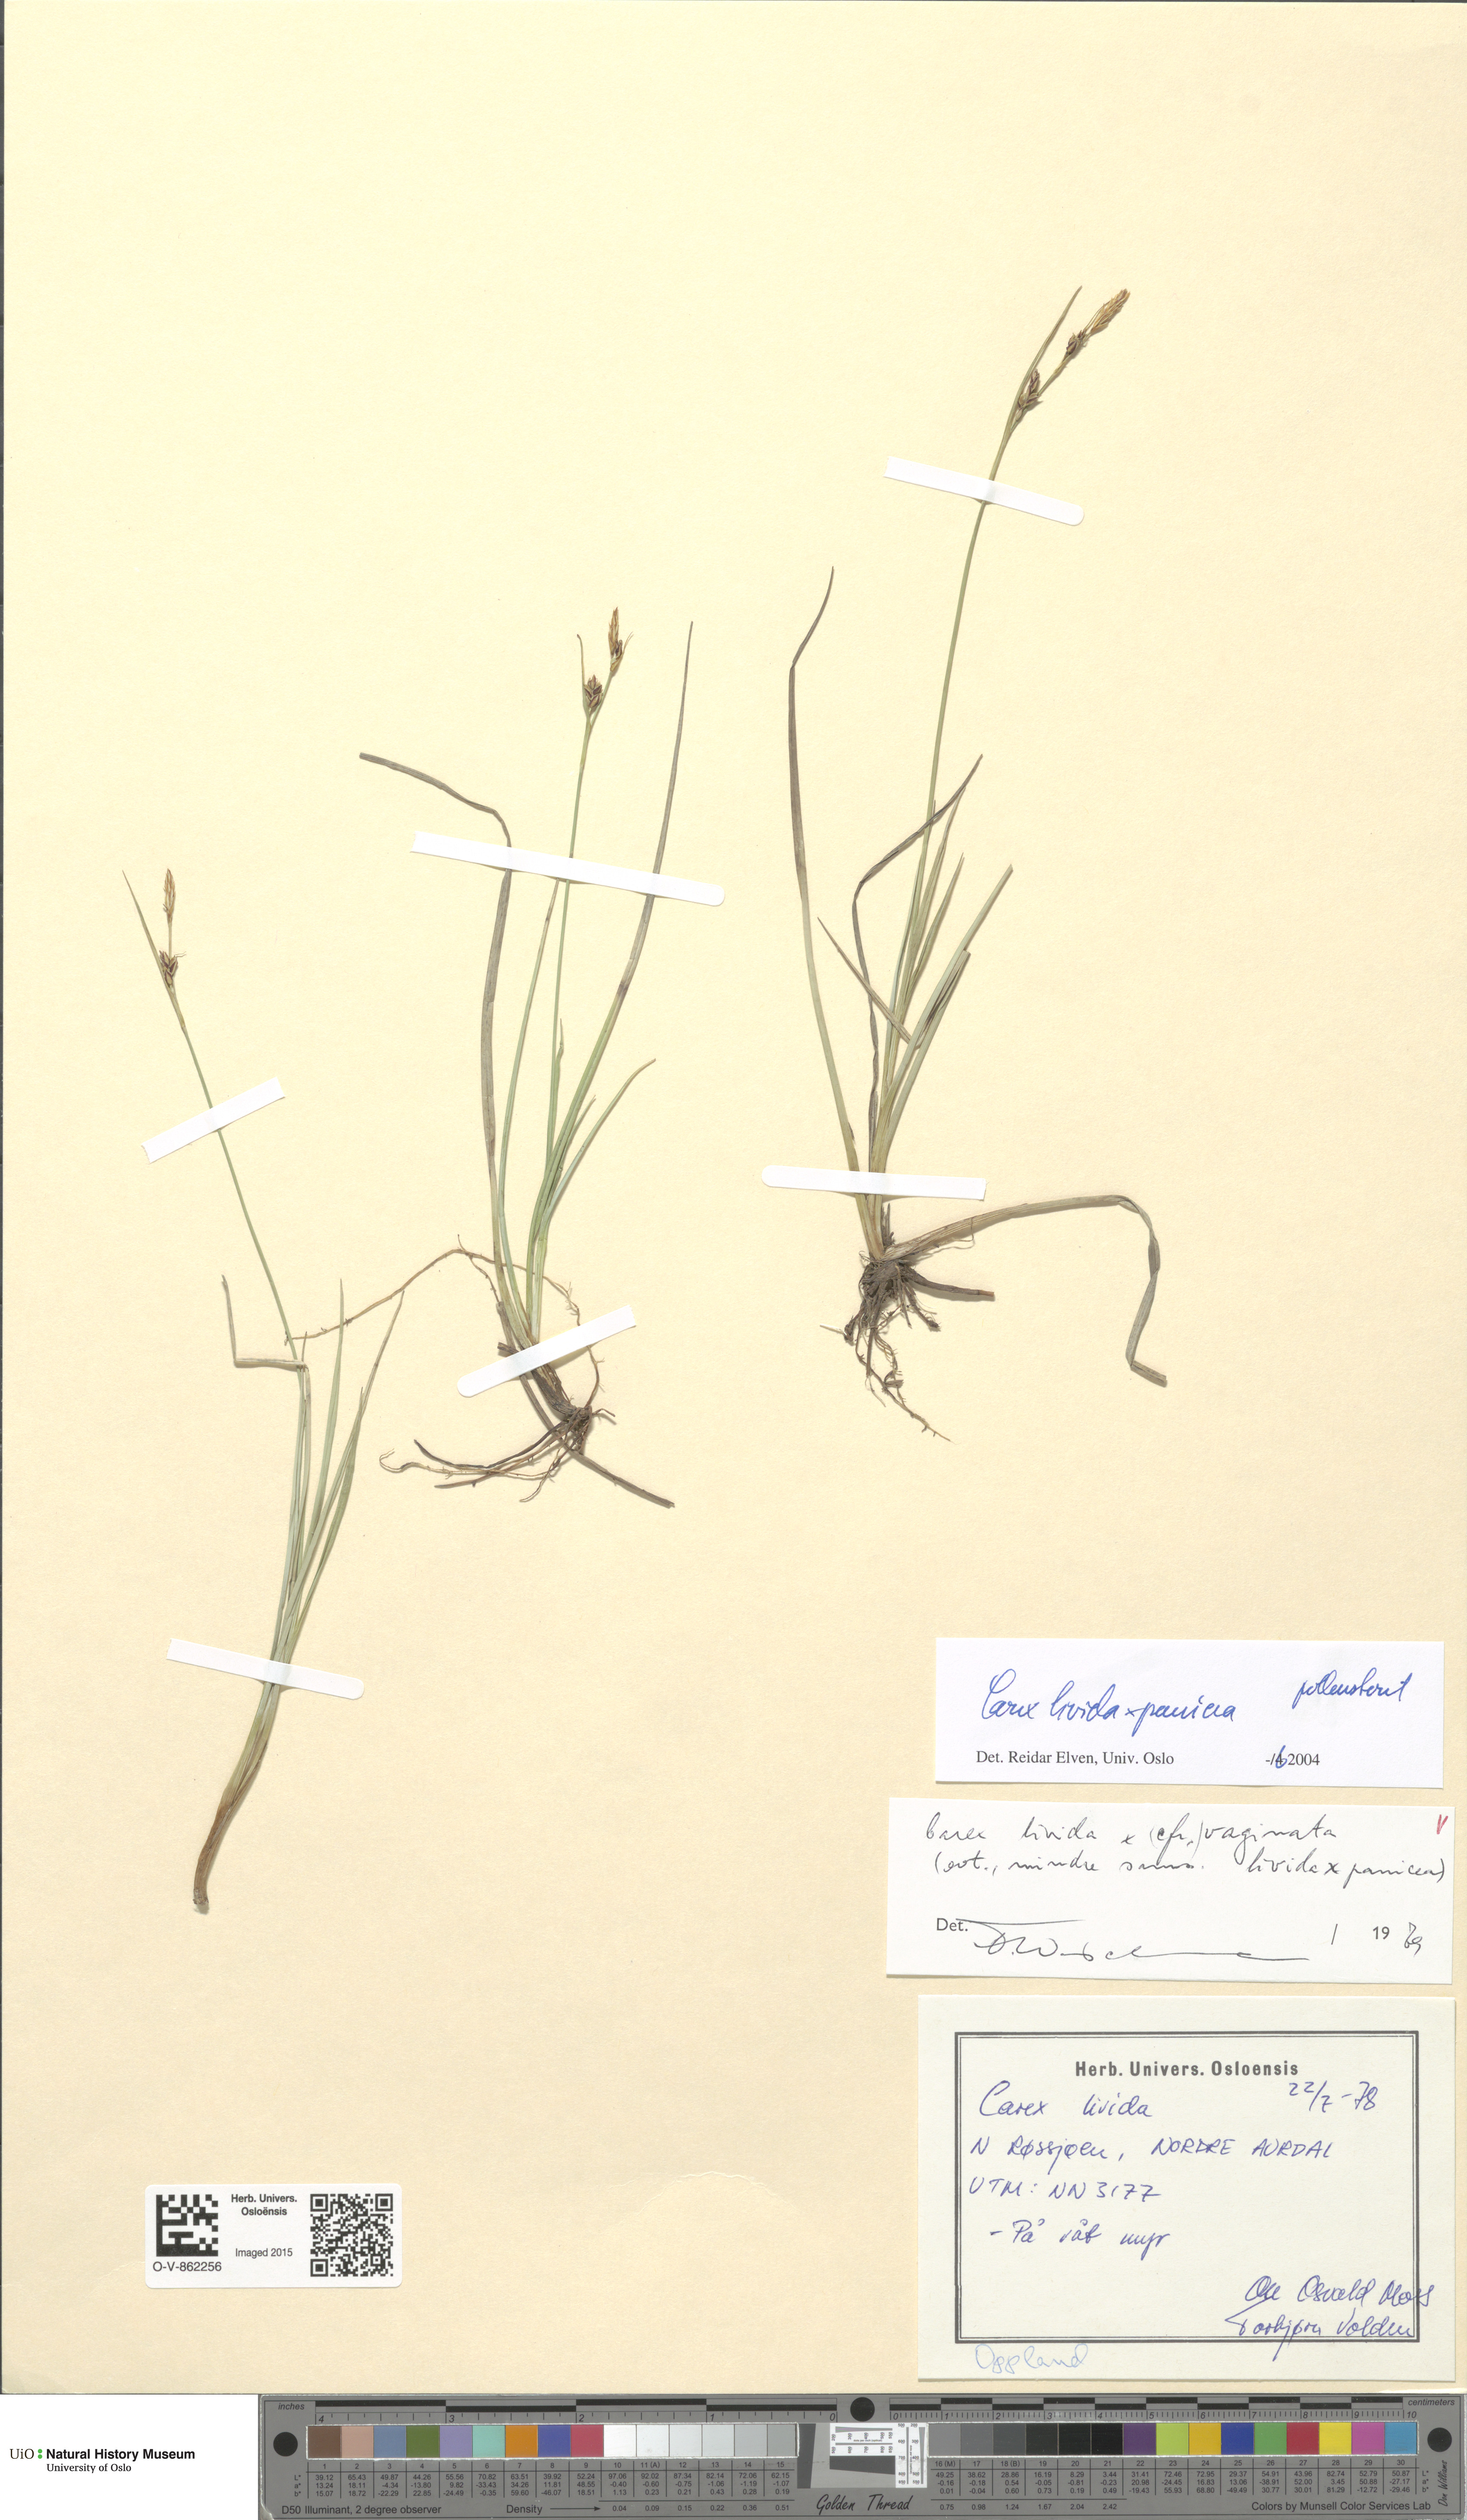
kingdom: Plantae
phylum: Tracheophyta
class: Liliopsida
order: Poales
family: Cyperaceae
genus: Carex
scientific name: Carex
